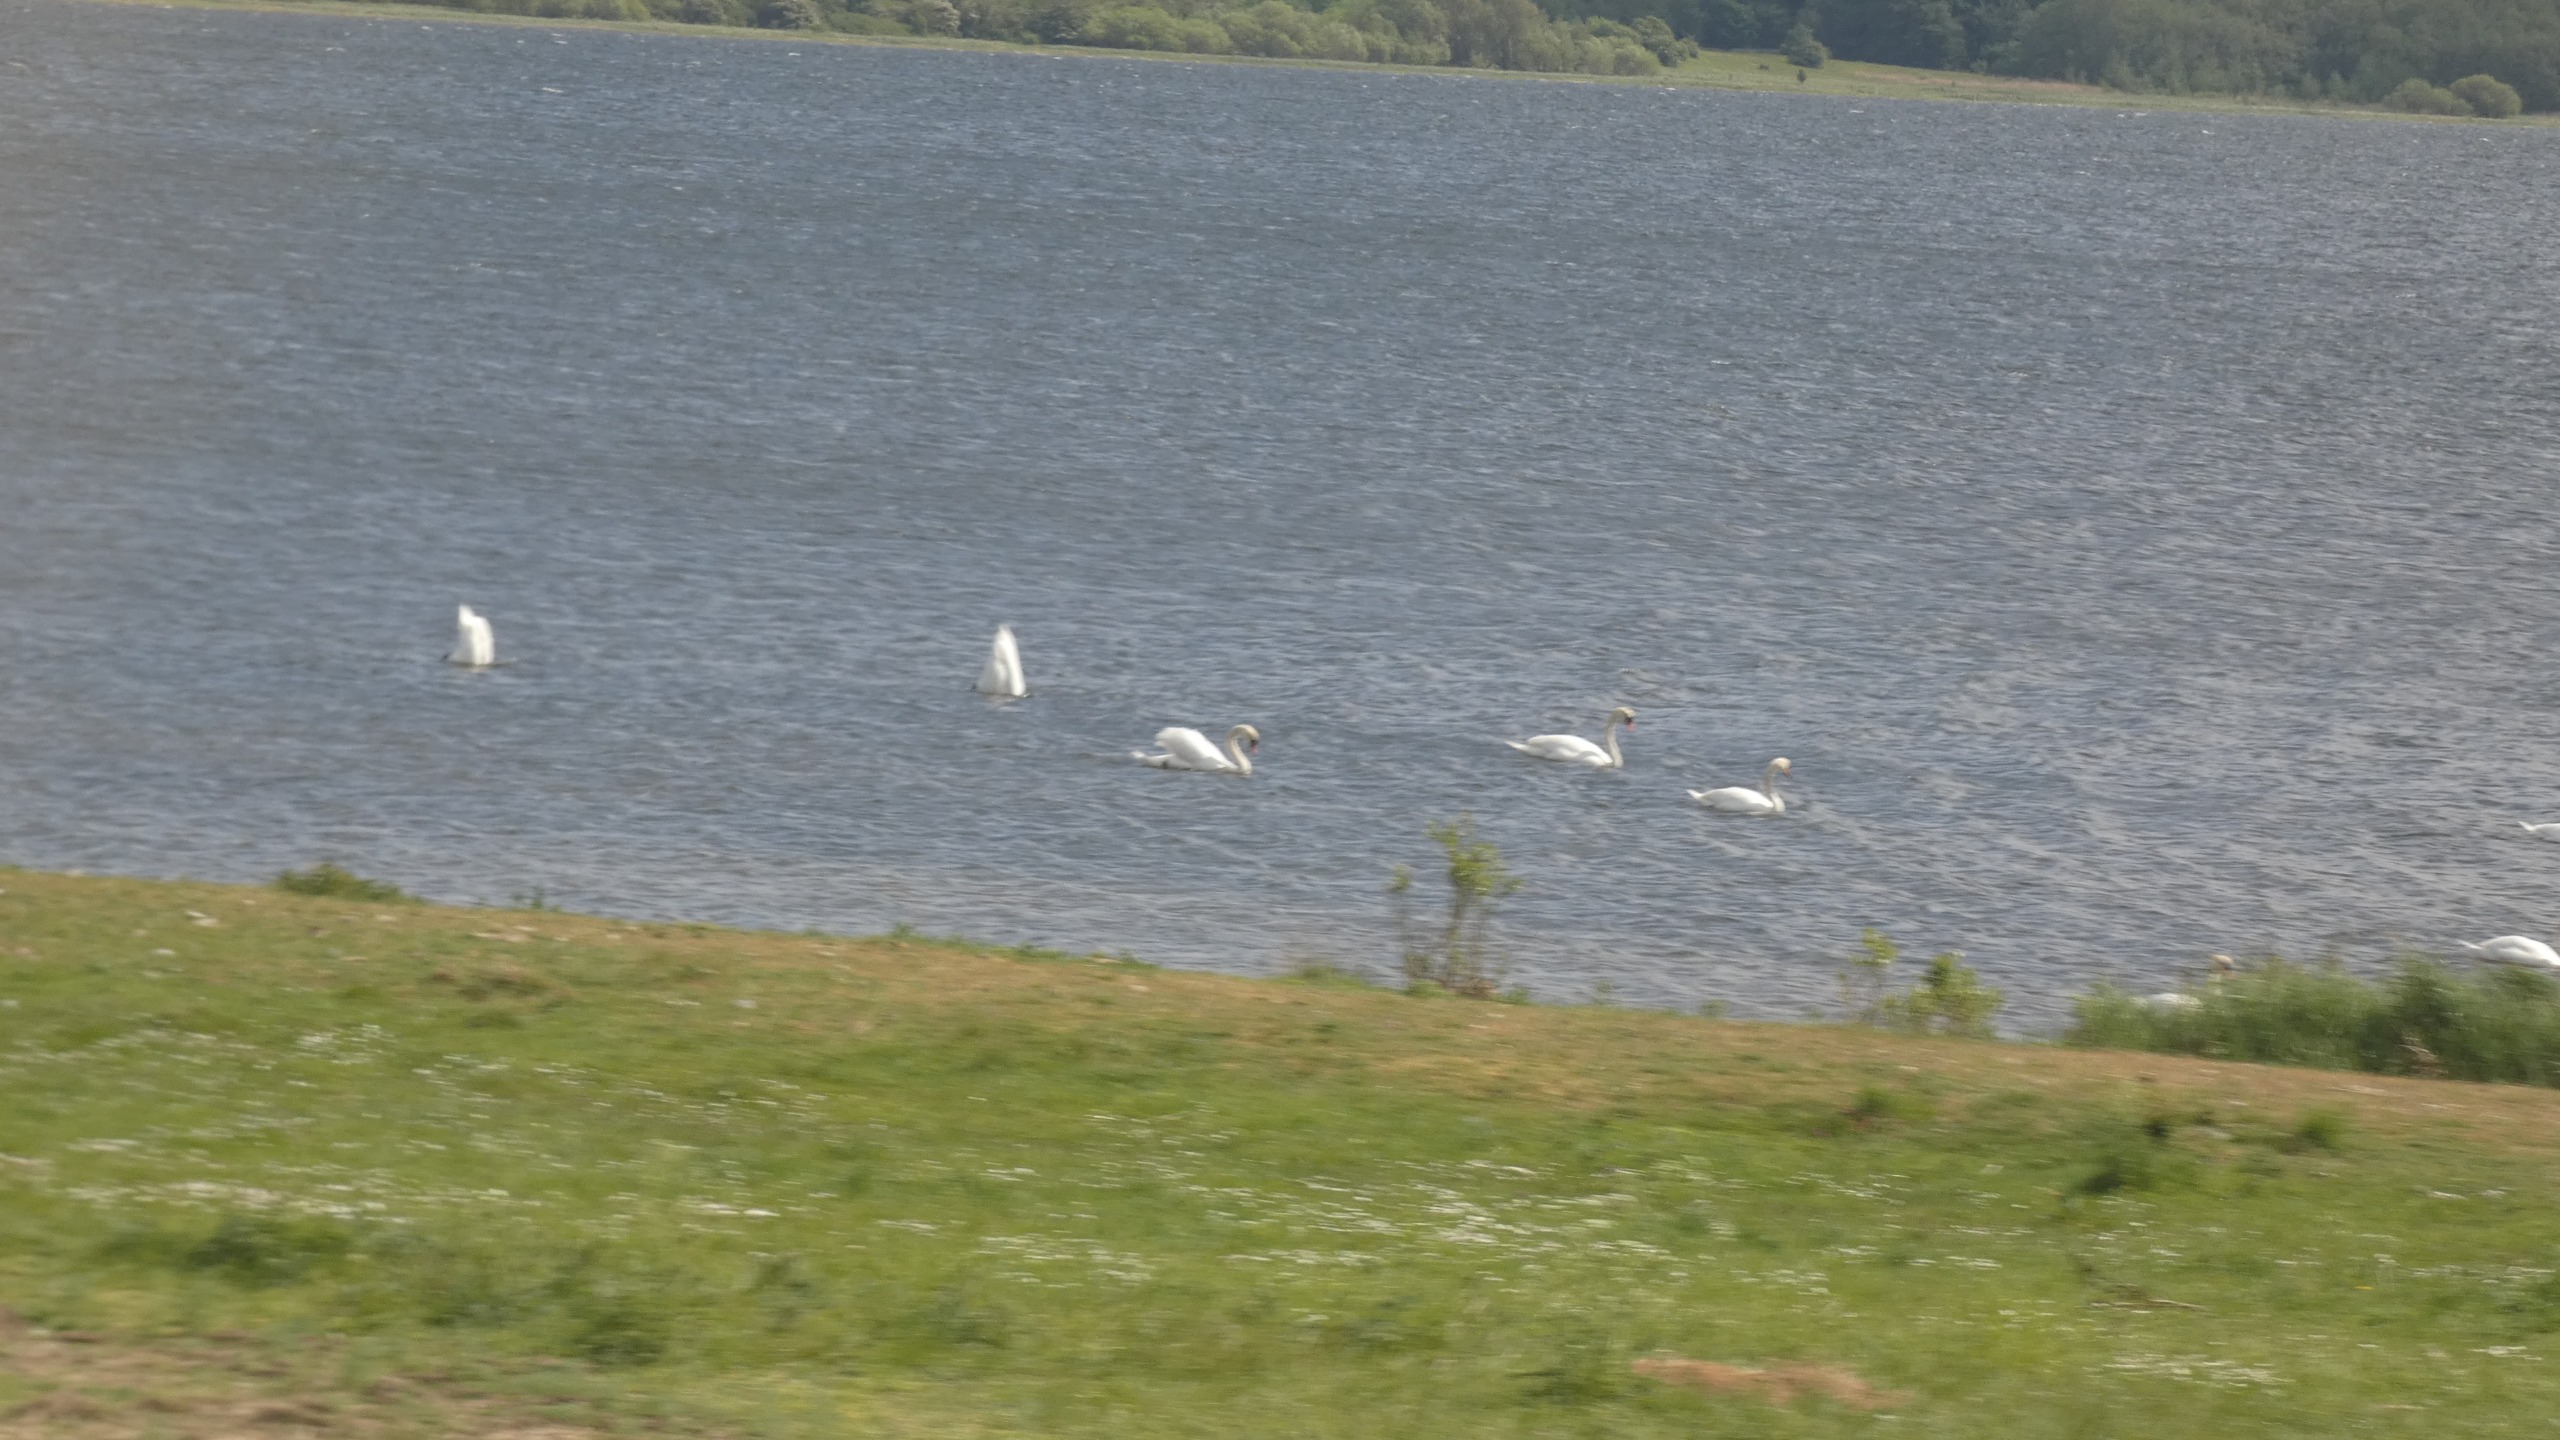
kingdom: Animalia
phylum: Chordata
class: Aves
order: Anseriformes
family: Anatidae
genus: Cygnus
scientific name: Cygnus olor
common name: Knopsvane
